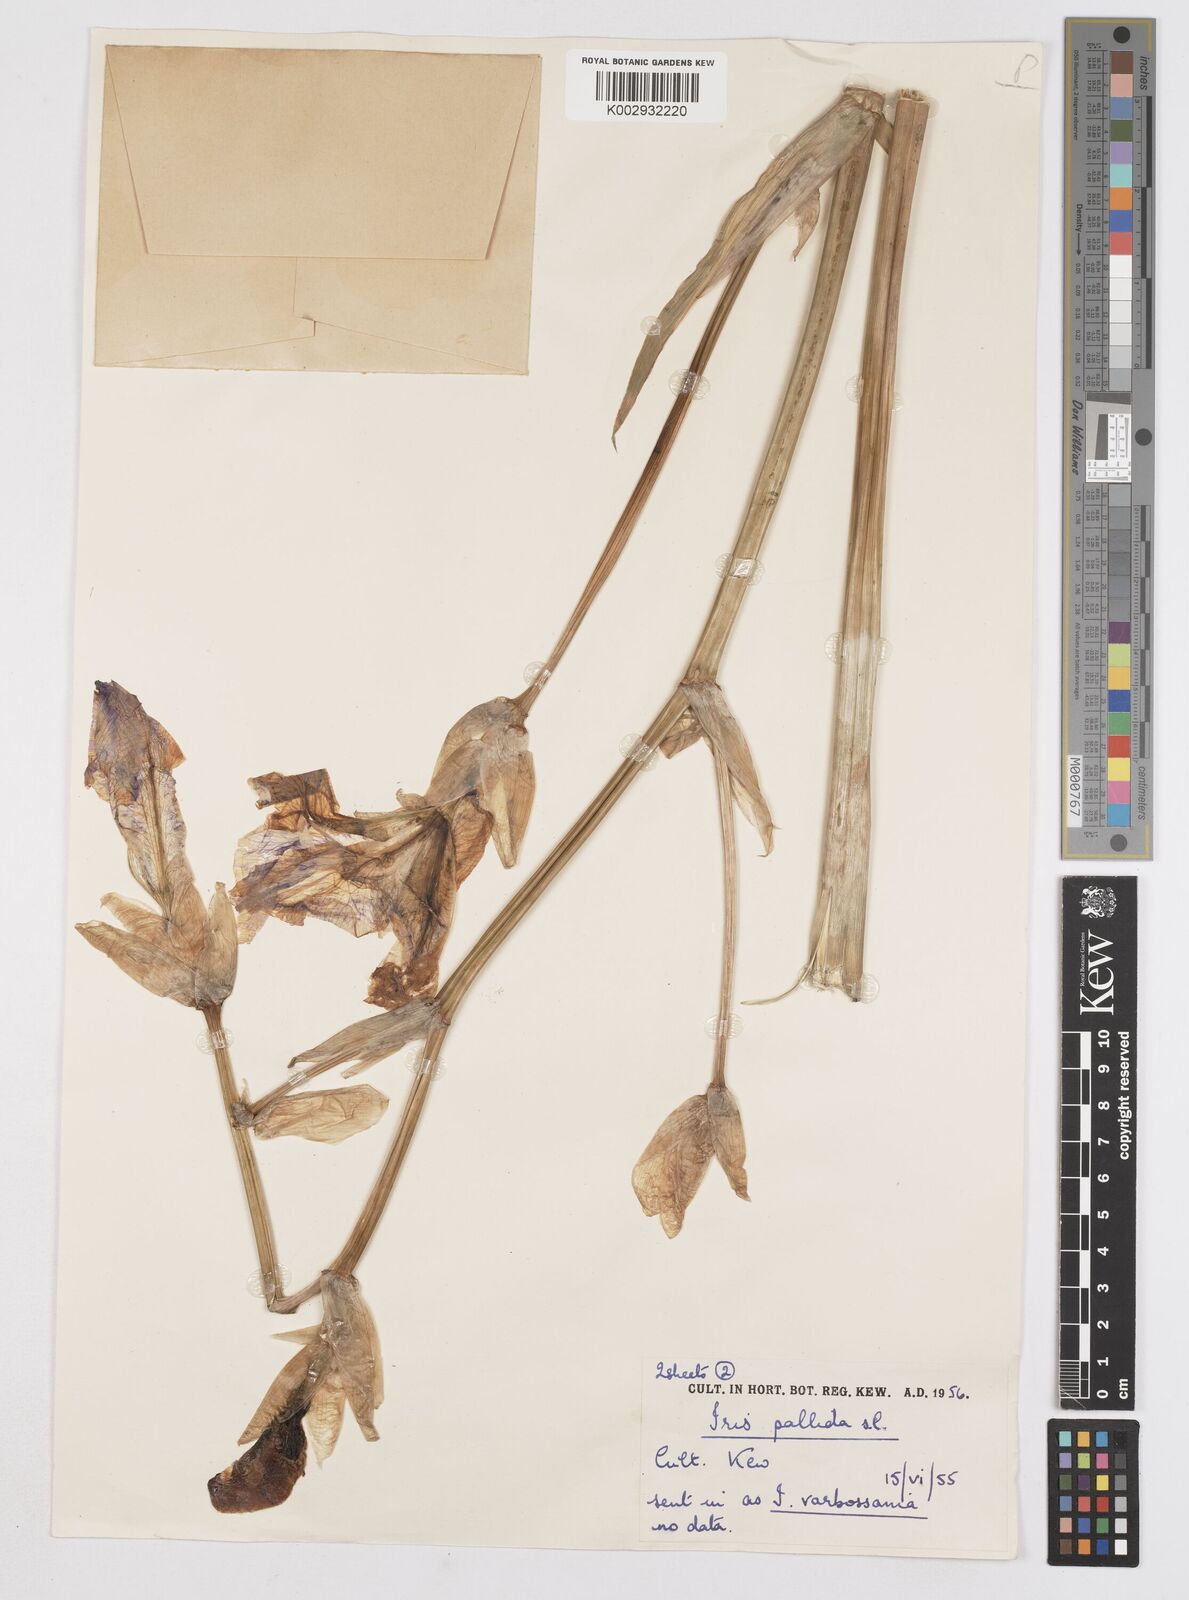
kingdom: Plantae
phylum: Tracheophyta
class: Liliopsida
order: Asparagales
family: Iridaceae
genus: Iris
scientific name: Iris halophila
